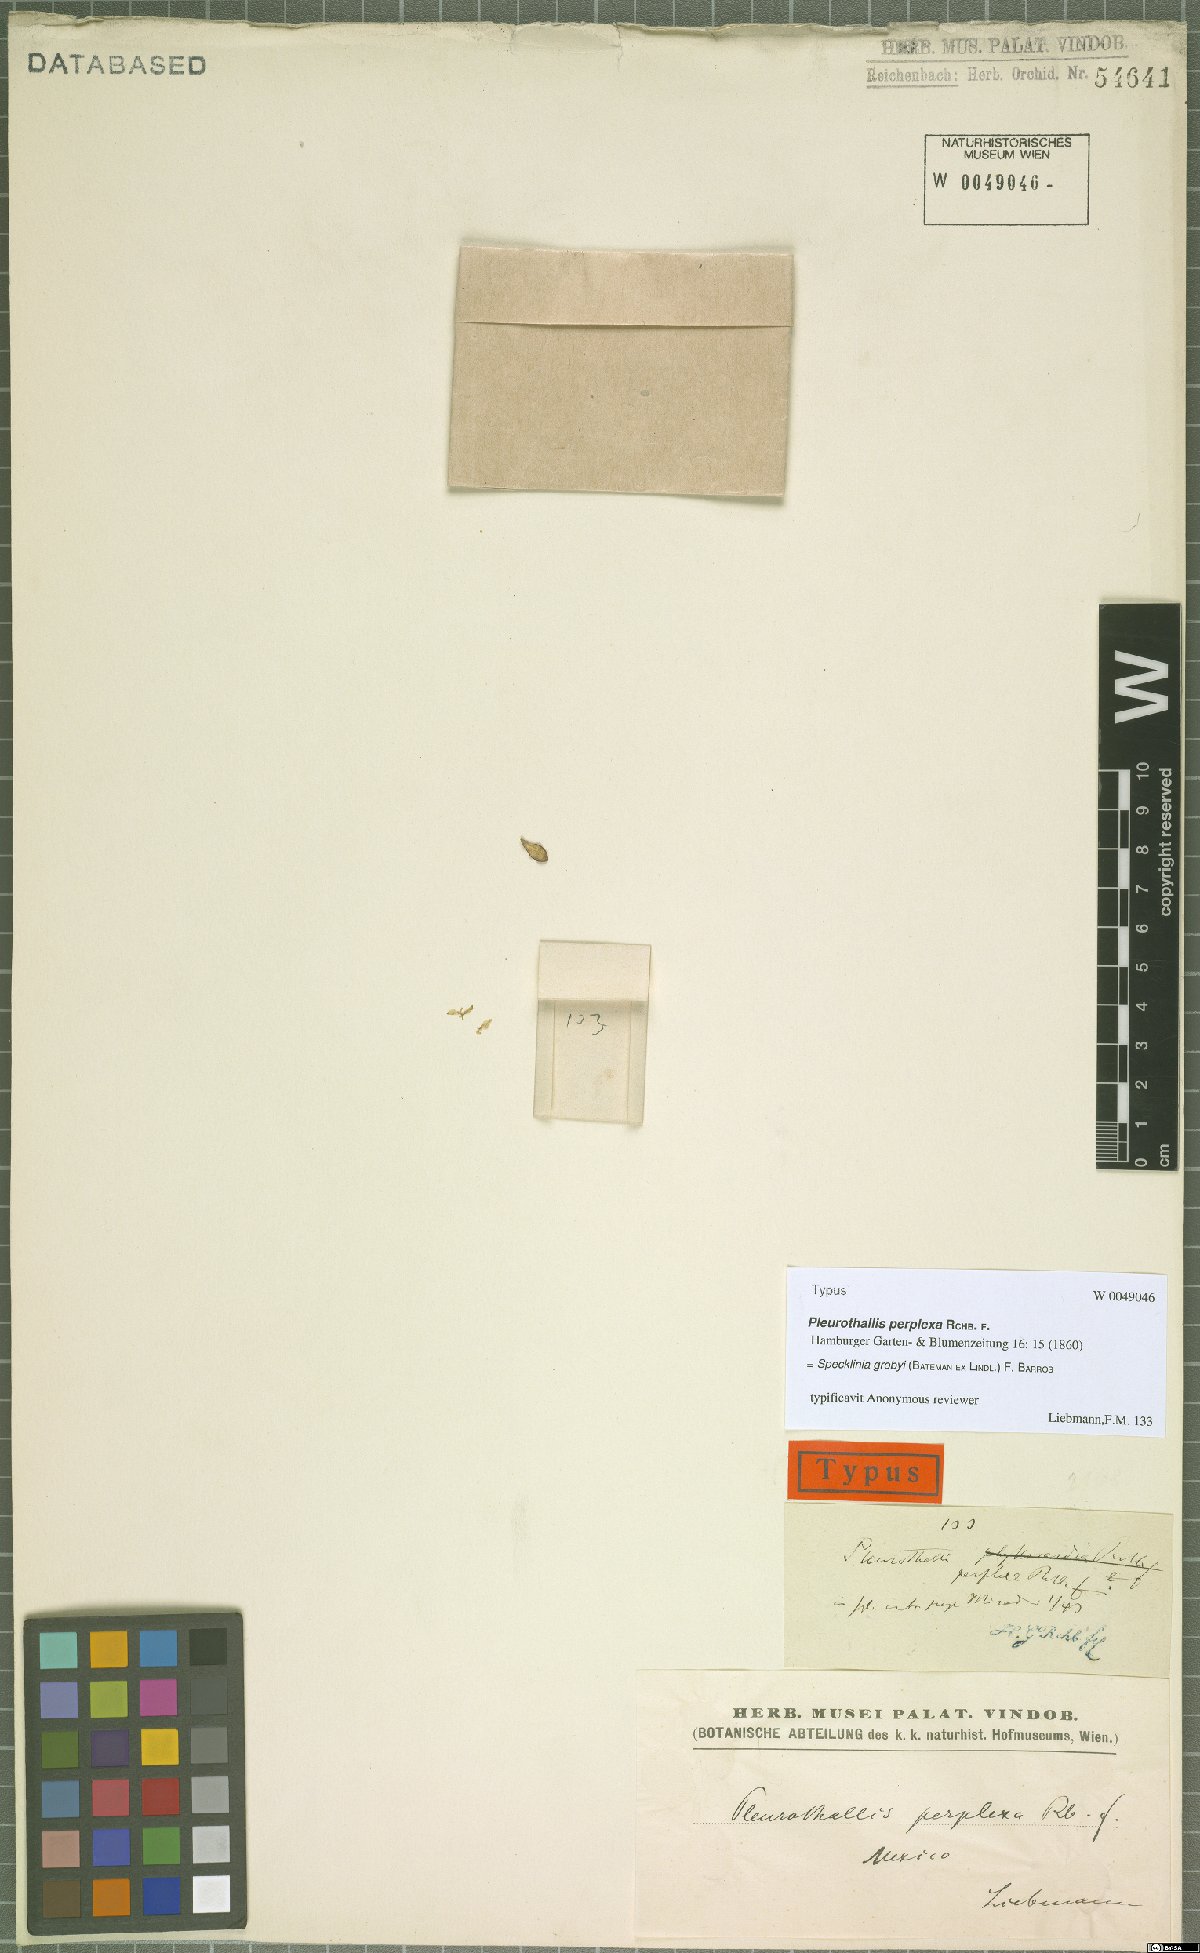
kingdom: Plantae
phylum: Tracheophyta
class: Liliopsida
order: Asparagales
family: Orchidaceae
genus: Specklinia
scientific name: Specklinia grobyi
